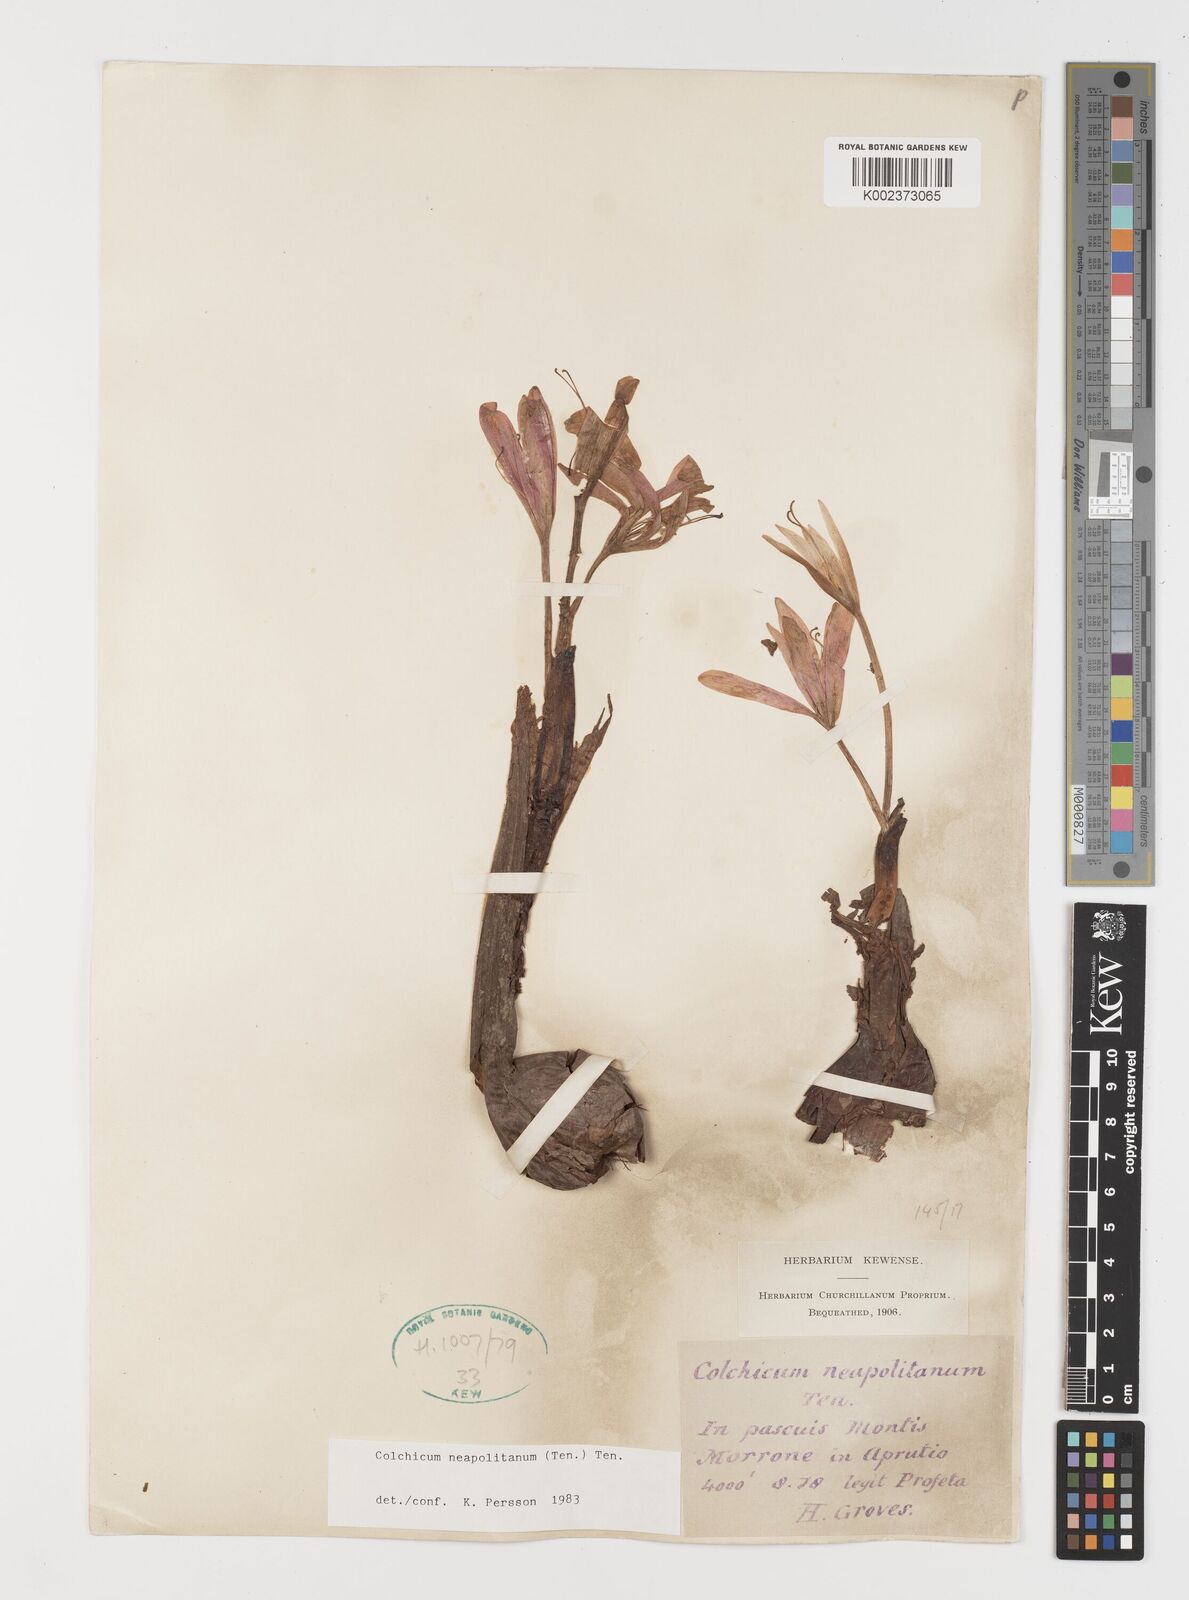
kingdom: Plantae
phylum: Tracheophyta
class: Liliopsida
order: Liliales
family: Colchicaceae
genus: Colchicum
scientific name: Colchicum neapolitanum
